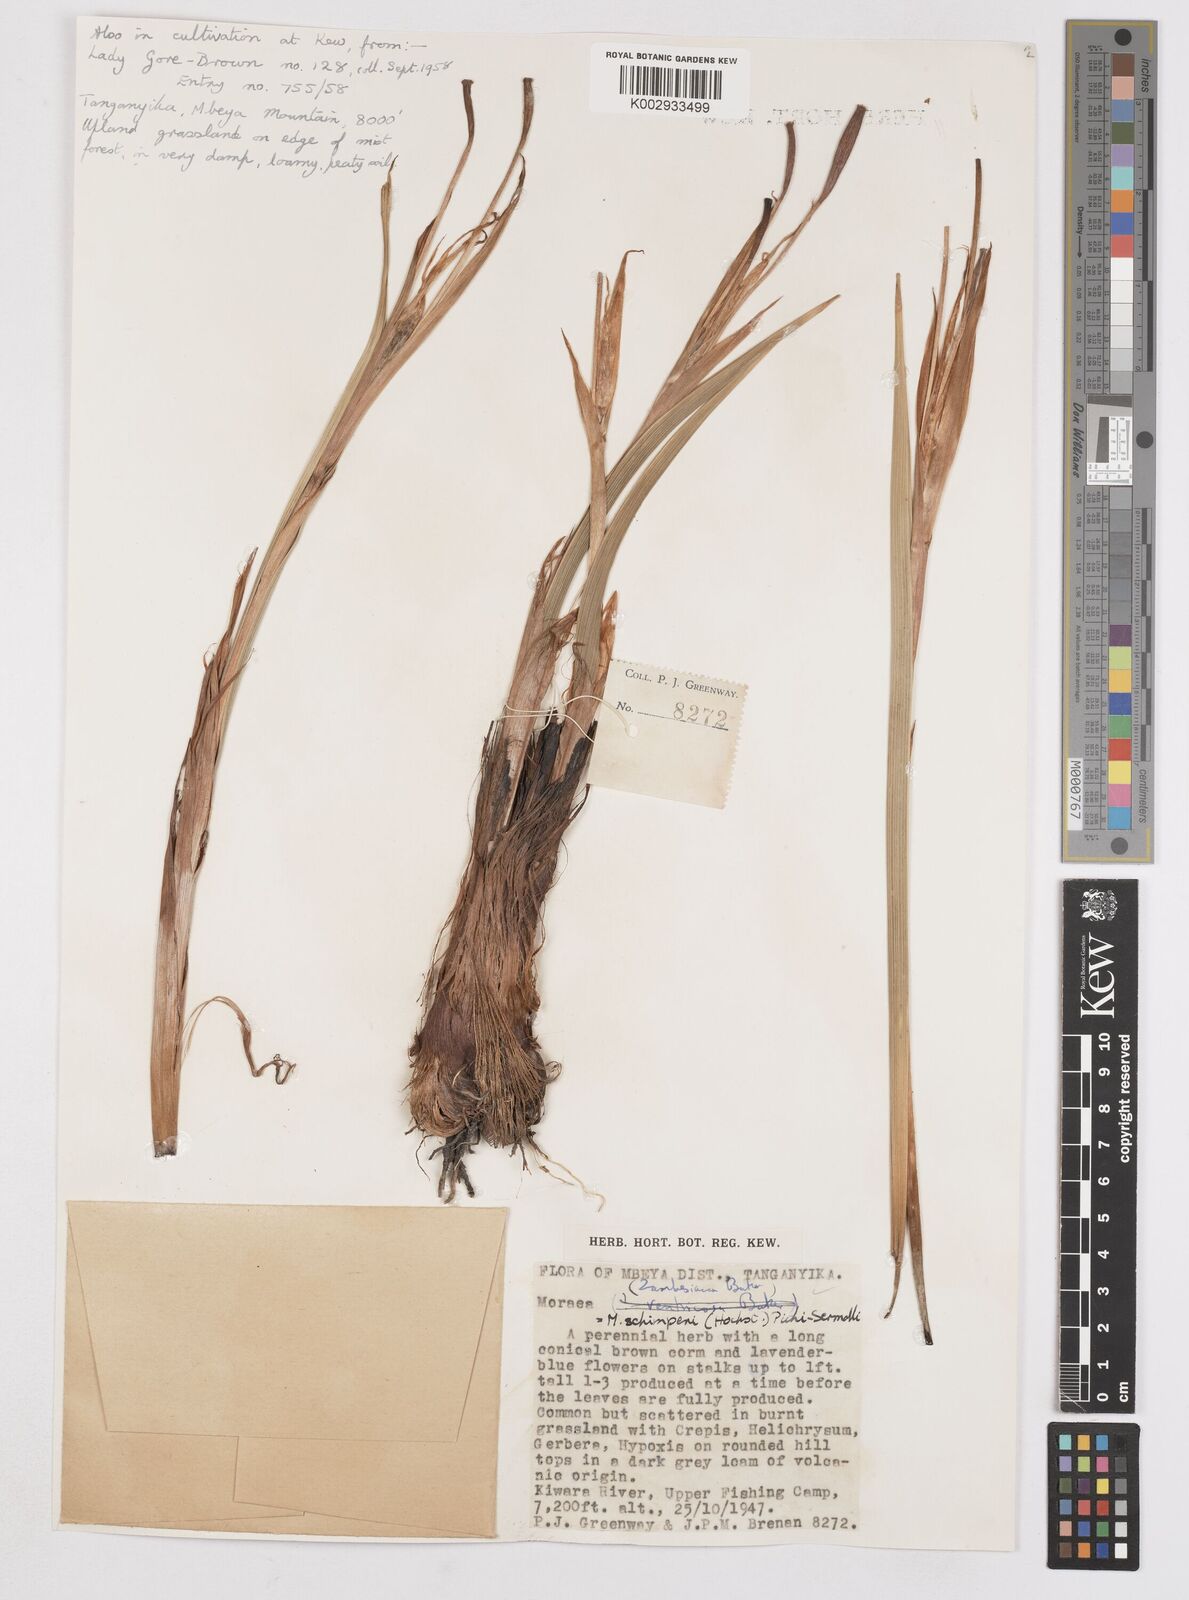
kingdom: Plantae
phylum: Tracheophyta
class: Liliopsida
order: Asparagales
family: Iridaceae
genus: Moraea
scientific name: Moraea schimperi
